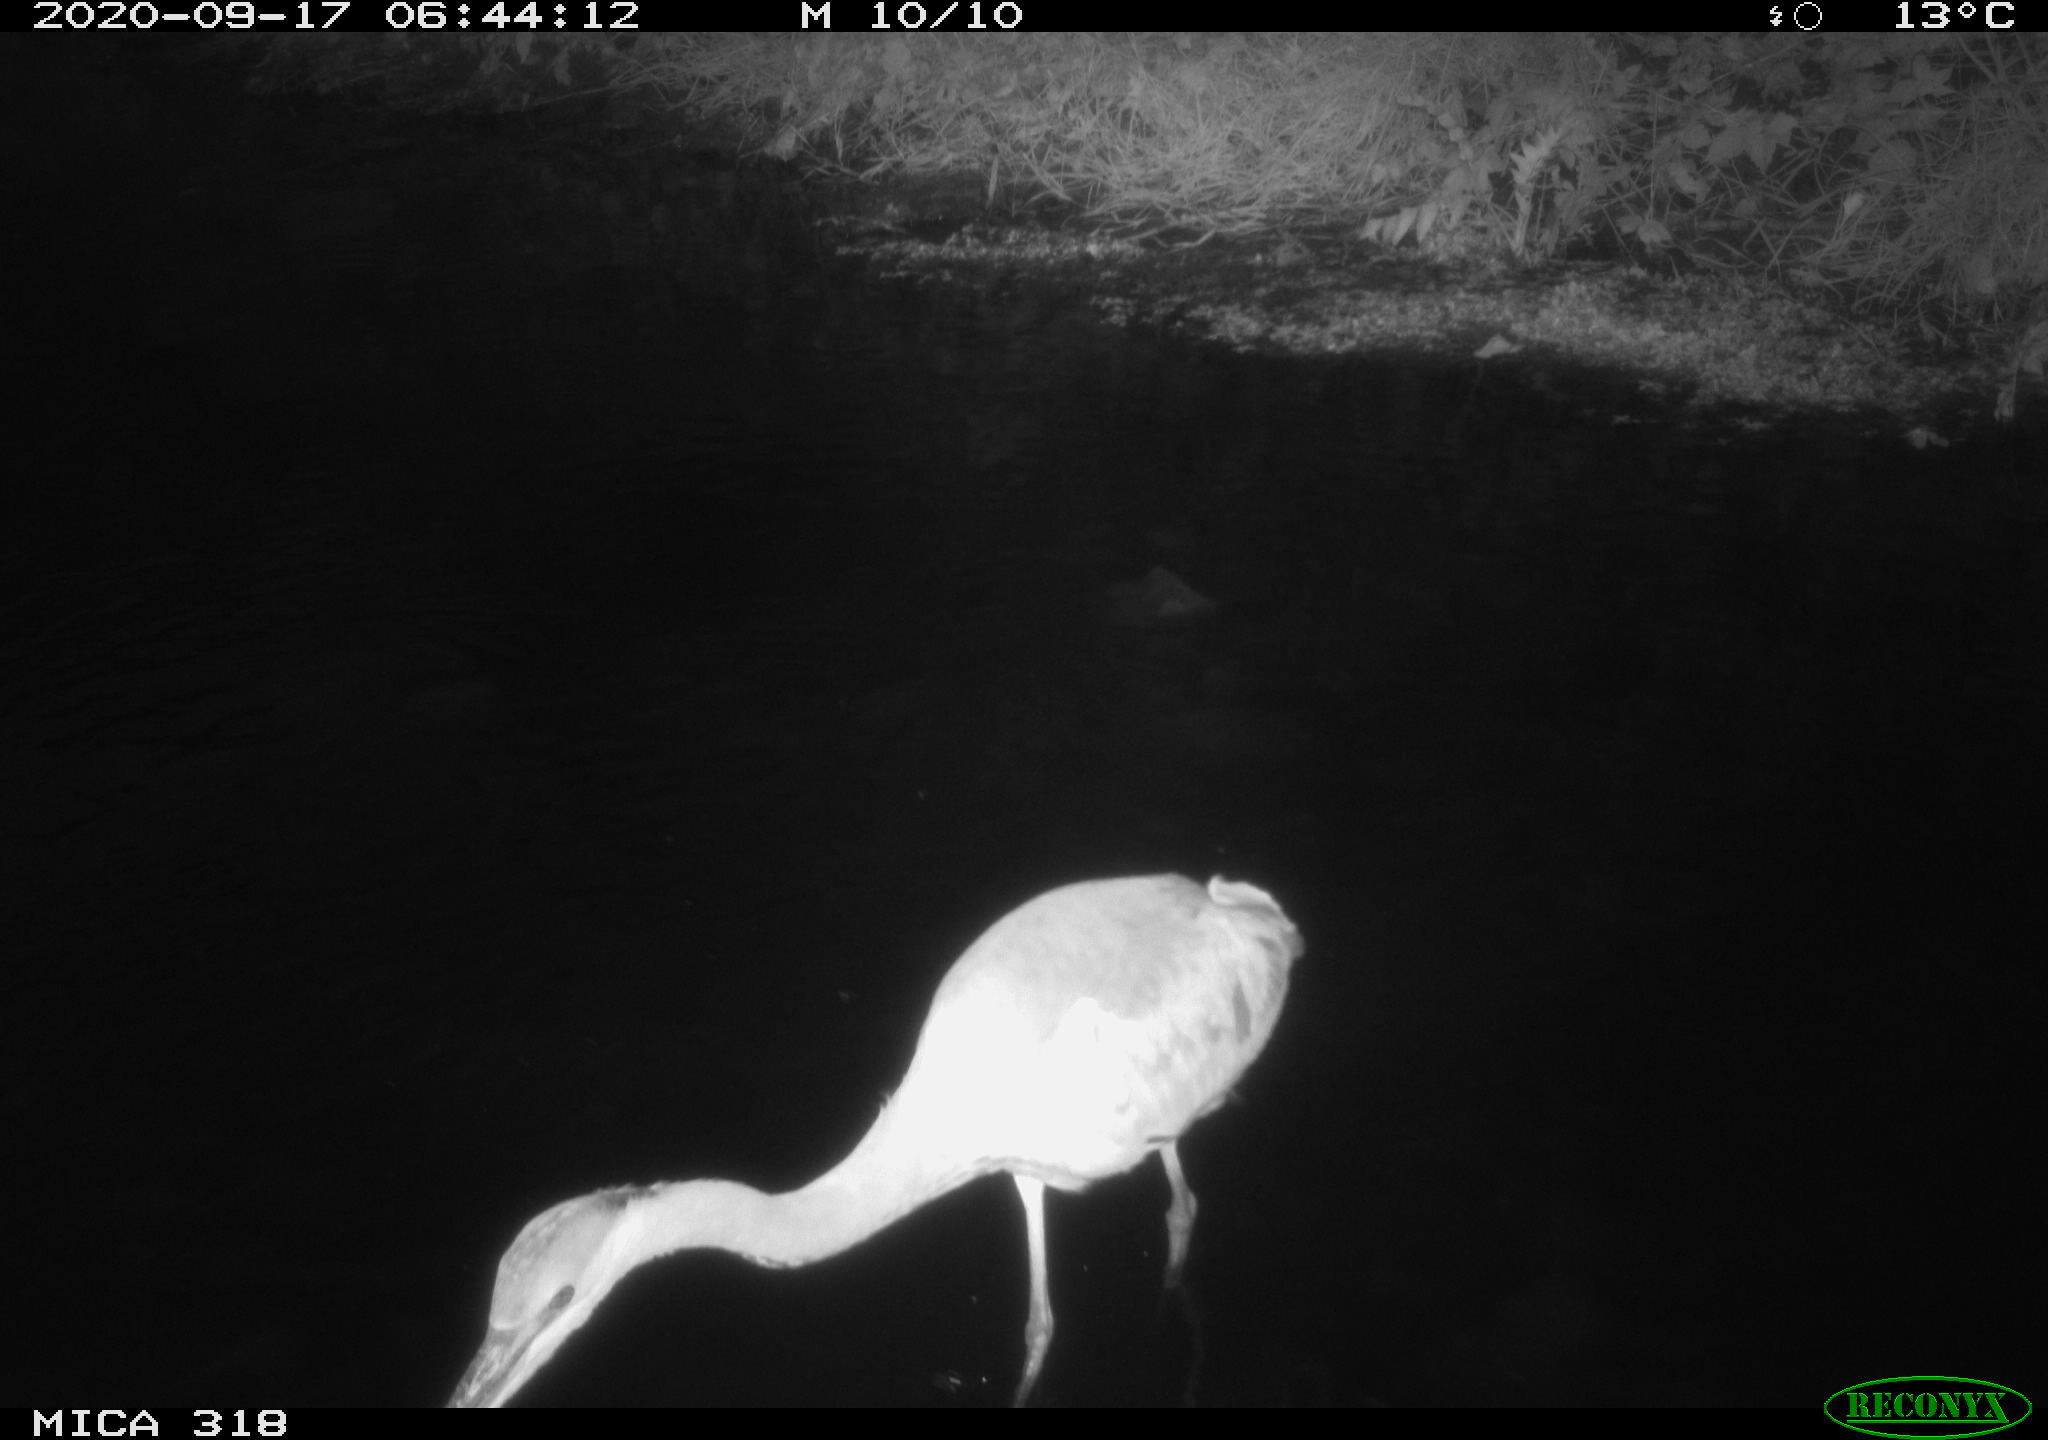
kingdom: Animalia
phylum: Chordata
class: Aves
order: Pelecaniformes
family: Ardeidae
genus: Ardea
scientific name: Ardea
